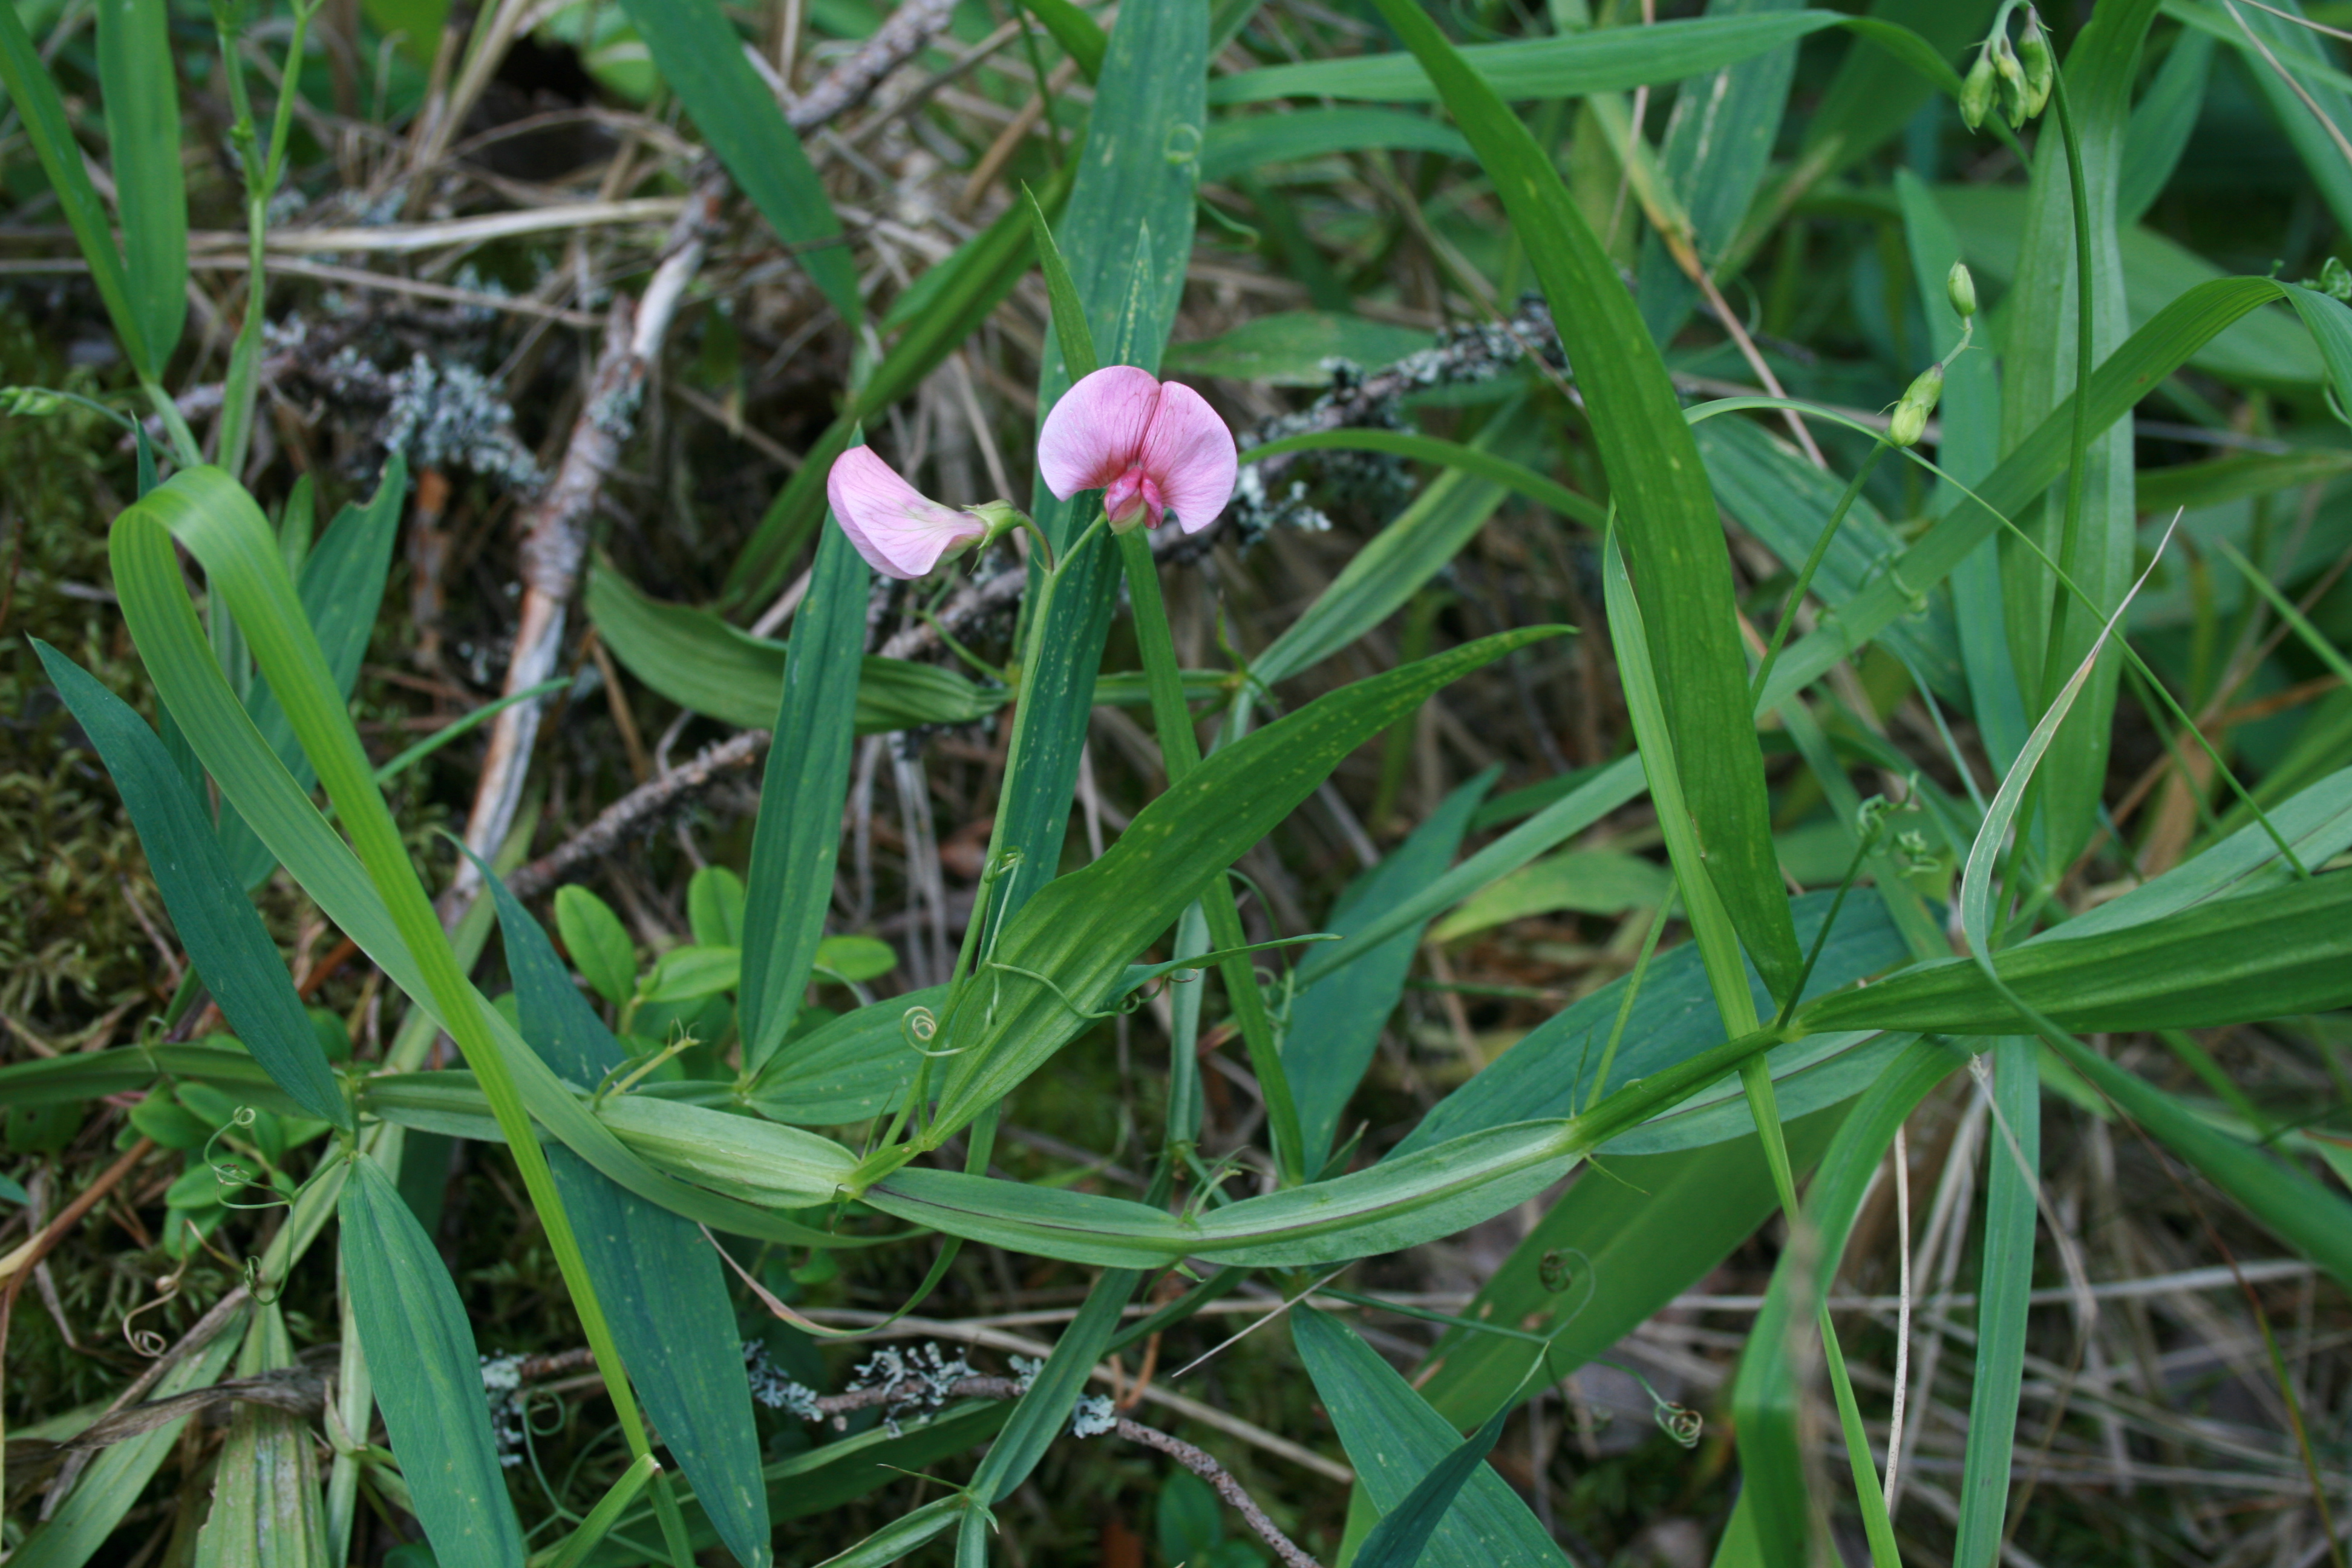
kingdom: Plantae
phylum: Tracheophyta
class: Magnoliopsida
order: Fabales
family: Fabaceae
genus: Lathyrus
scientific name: Lathyrus sylvestris
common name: Flat pea
